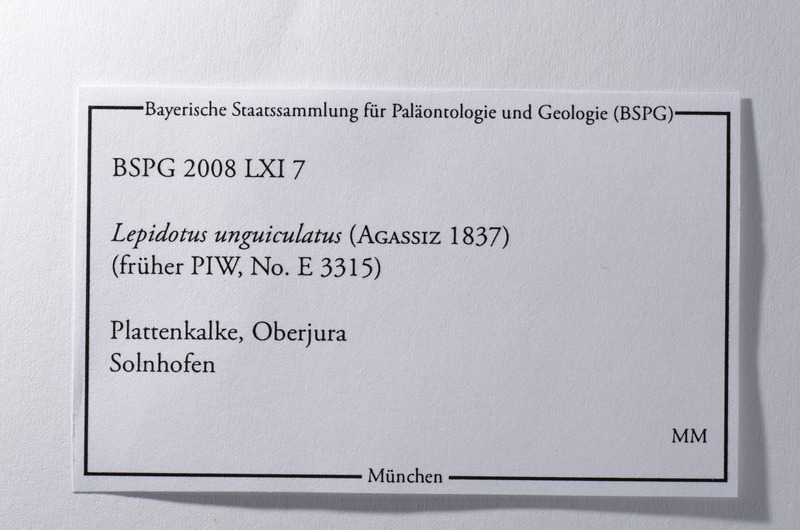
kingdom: Animalia
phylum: Chordata
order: Lepisosteiformes
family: Lepidotidae
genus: Lepidotes
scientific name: Lepidotes unguiculatus
